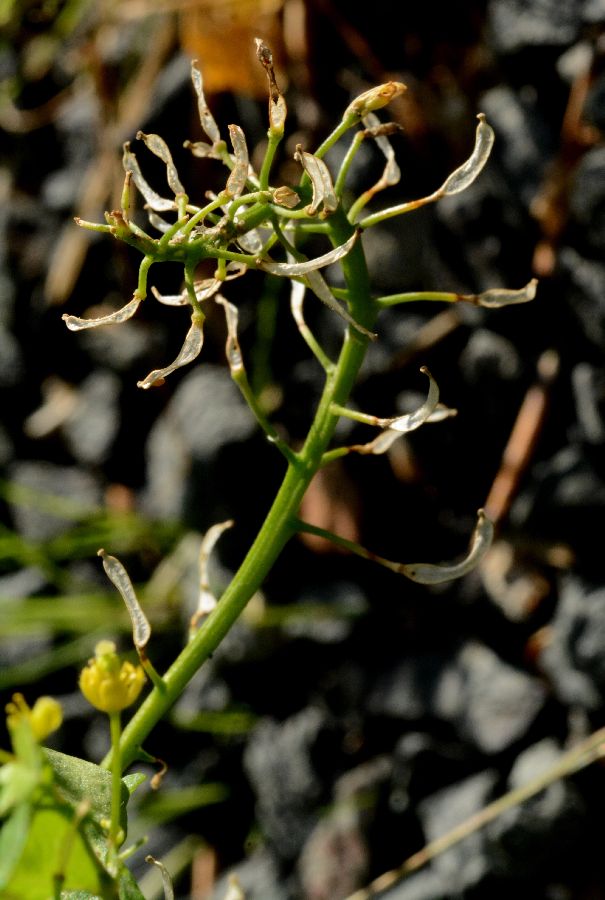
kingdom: Plantae
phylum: Tracheophyta
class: Magnoliopsida
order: Brassicales
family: Brassicaceae
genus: Rorippa
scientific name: Rorippa palustris
